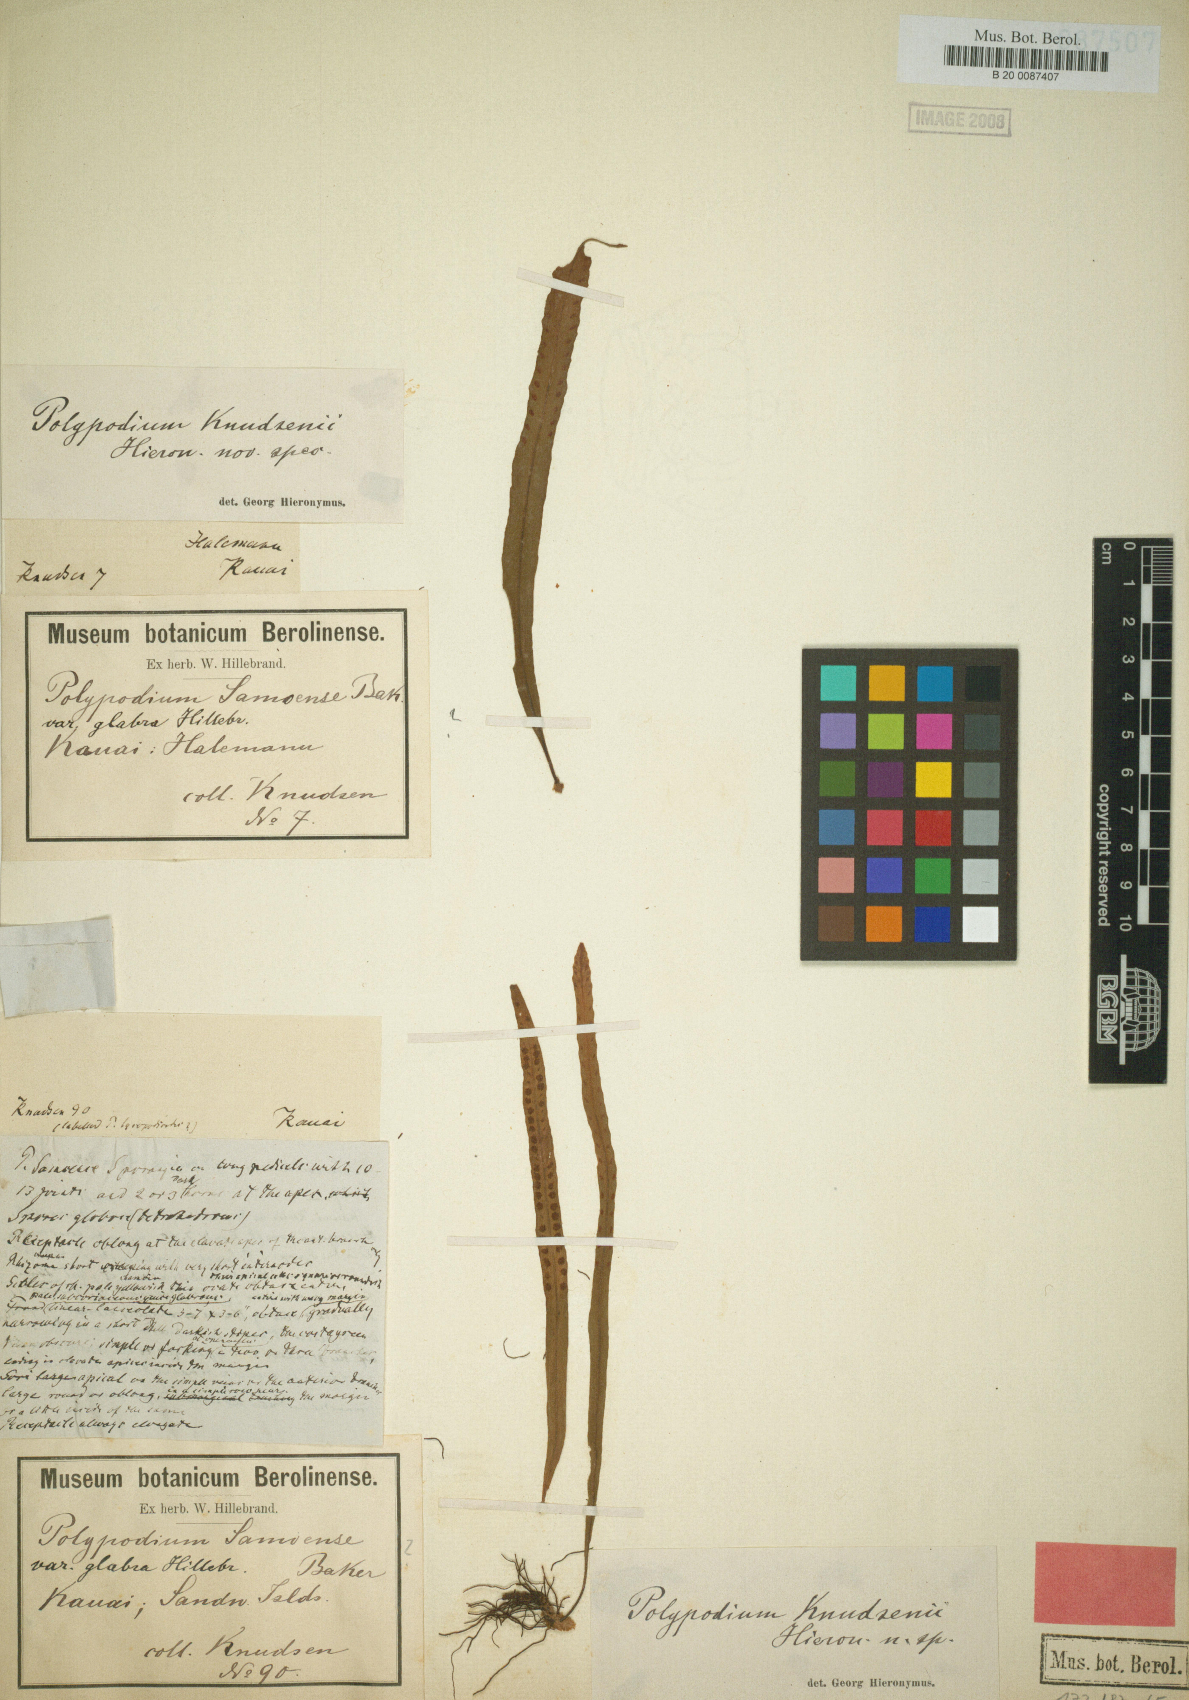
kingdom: Plantae
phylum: Tracheophyta
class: Polypodiopsida
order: Polypodiales
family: Polypodiaceae
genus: Oreogrammitis
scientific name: Oreogrammitis baldwinii
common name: Baldwin's dwarf polypody
